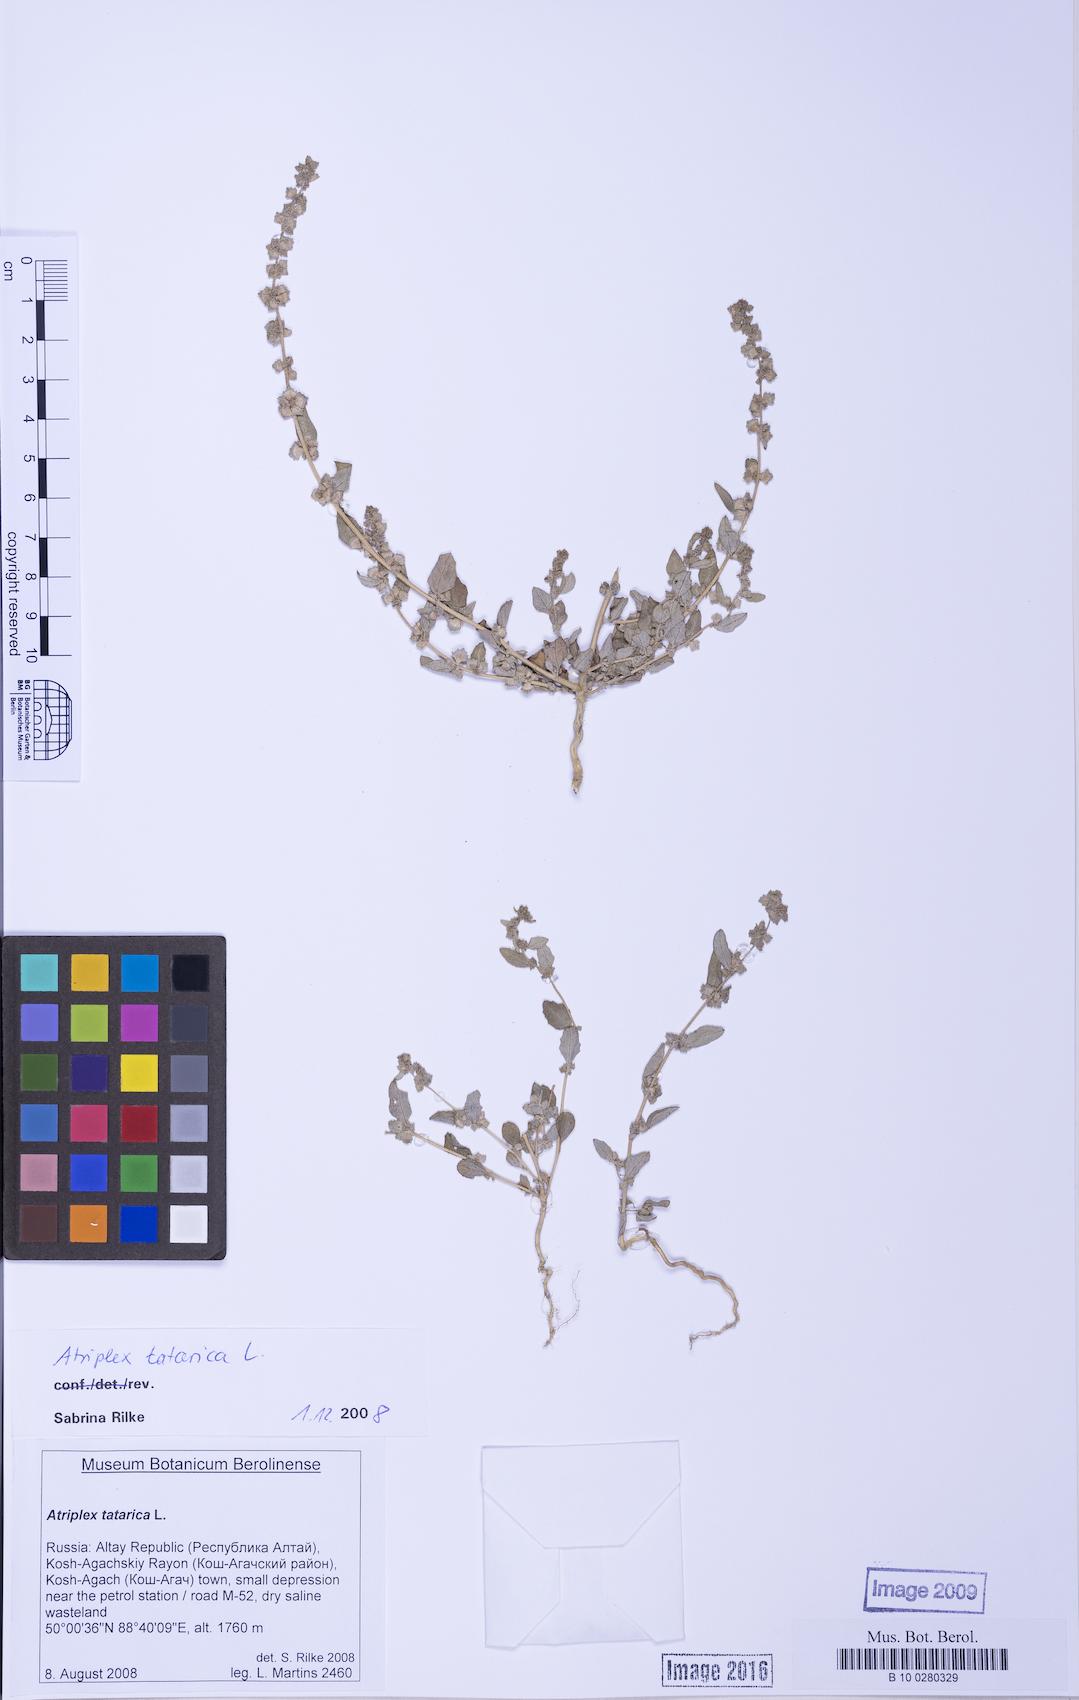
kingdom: Plantae
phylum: Tracheophyta
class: Magnoliopsida
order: Caryophyllales
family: Amaranthaceae
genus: Atriplex
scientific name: Atriplex tatarica
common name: Tatarian orache
